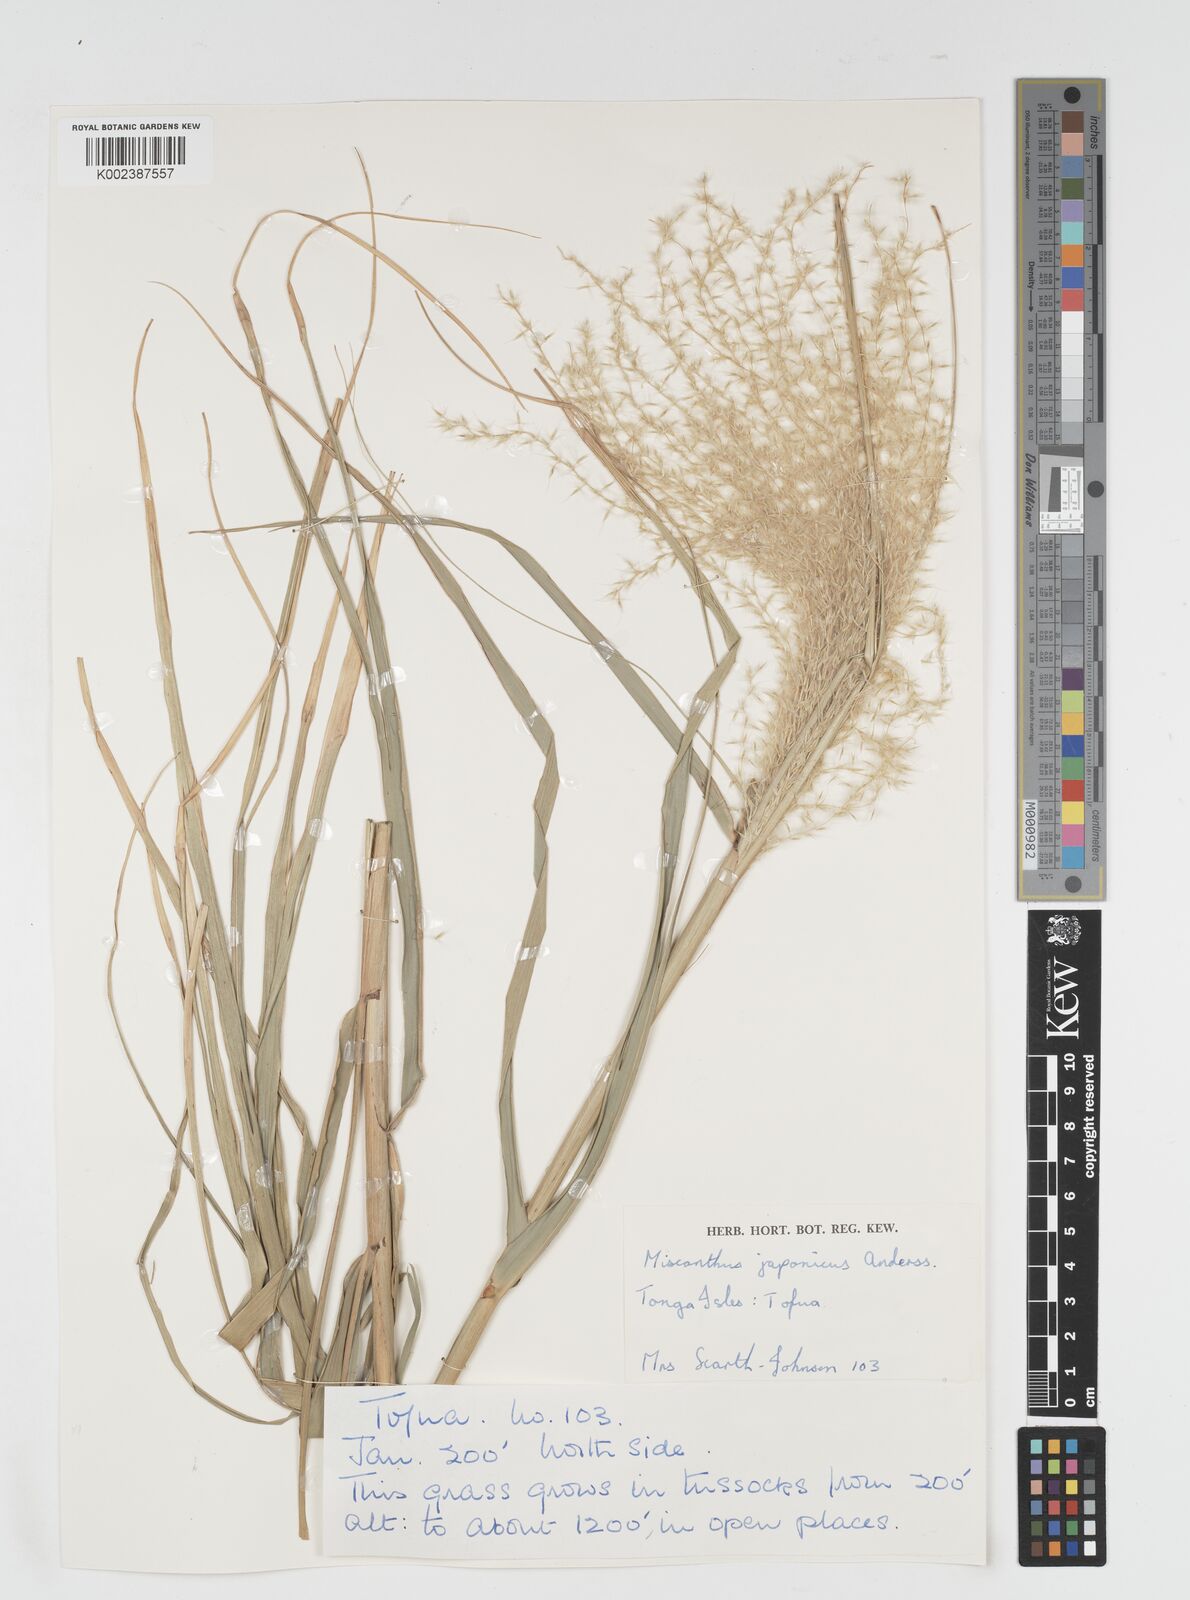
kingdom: Plantae
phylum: Tracheophyta
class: Liliopsida
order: Poales
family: Poaceae
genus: Miscanthus
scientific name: Miscanthus floridulus
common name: Pacific island silvergrass
